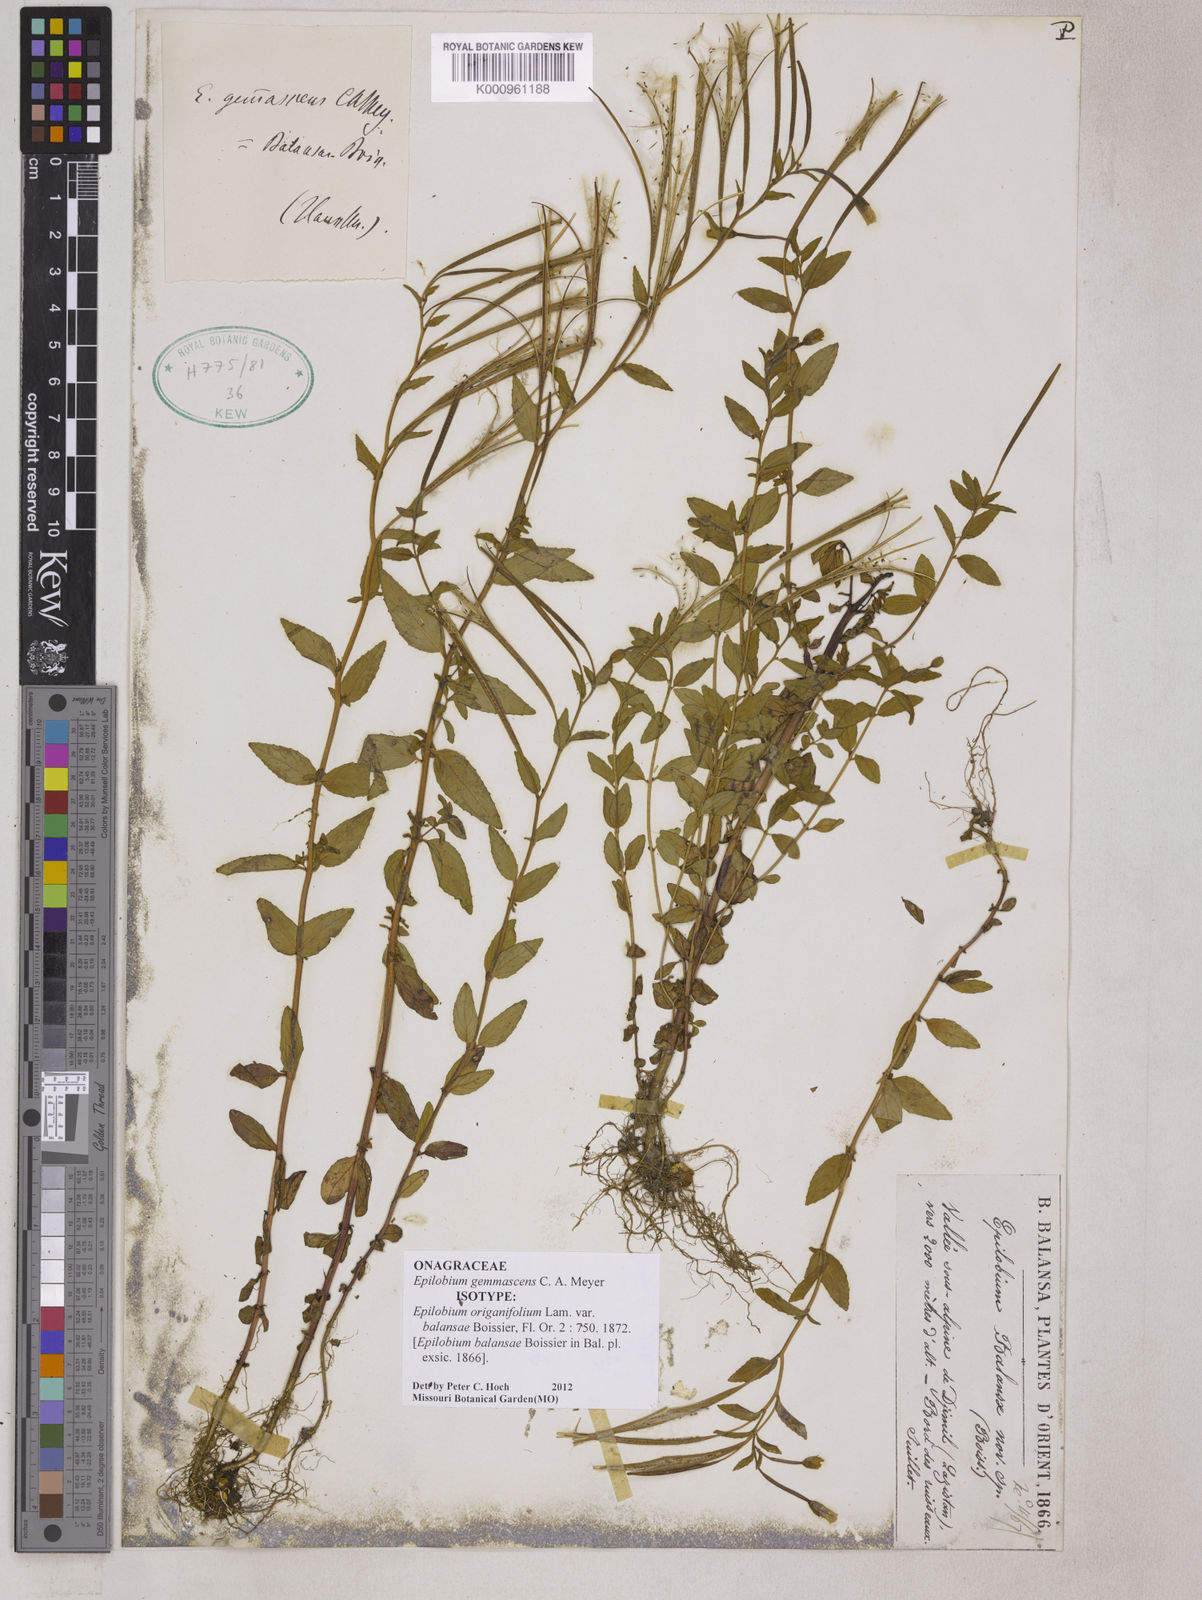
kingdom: Plantae
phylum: Tracheophyta
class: Magnoliopsida
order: Myrtales
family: Onagraceae
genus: Epilobium
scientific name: Epilobium gemmascens
